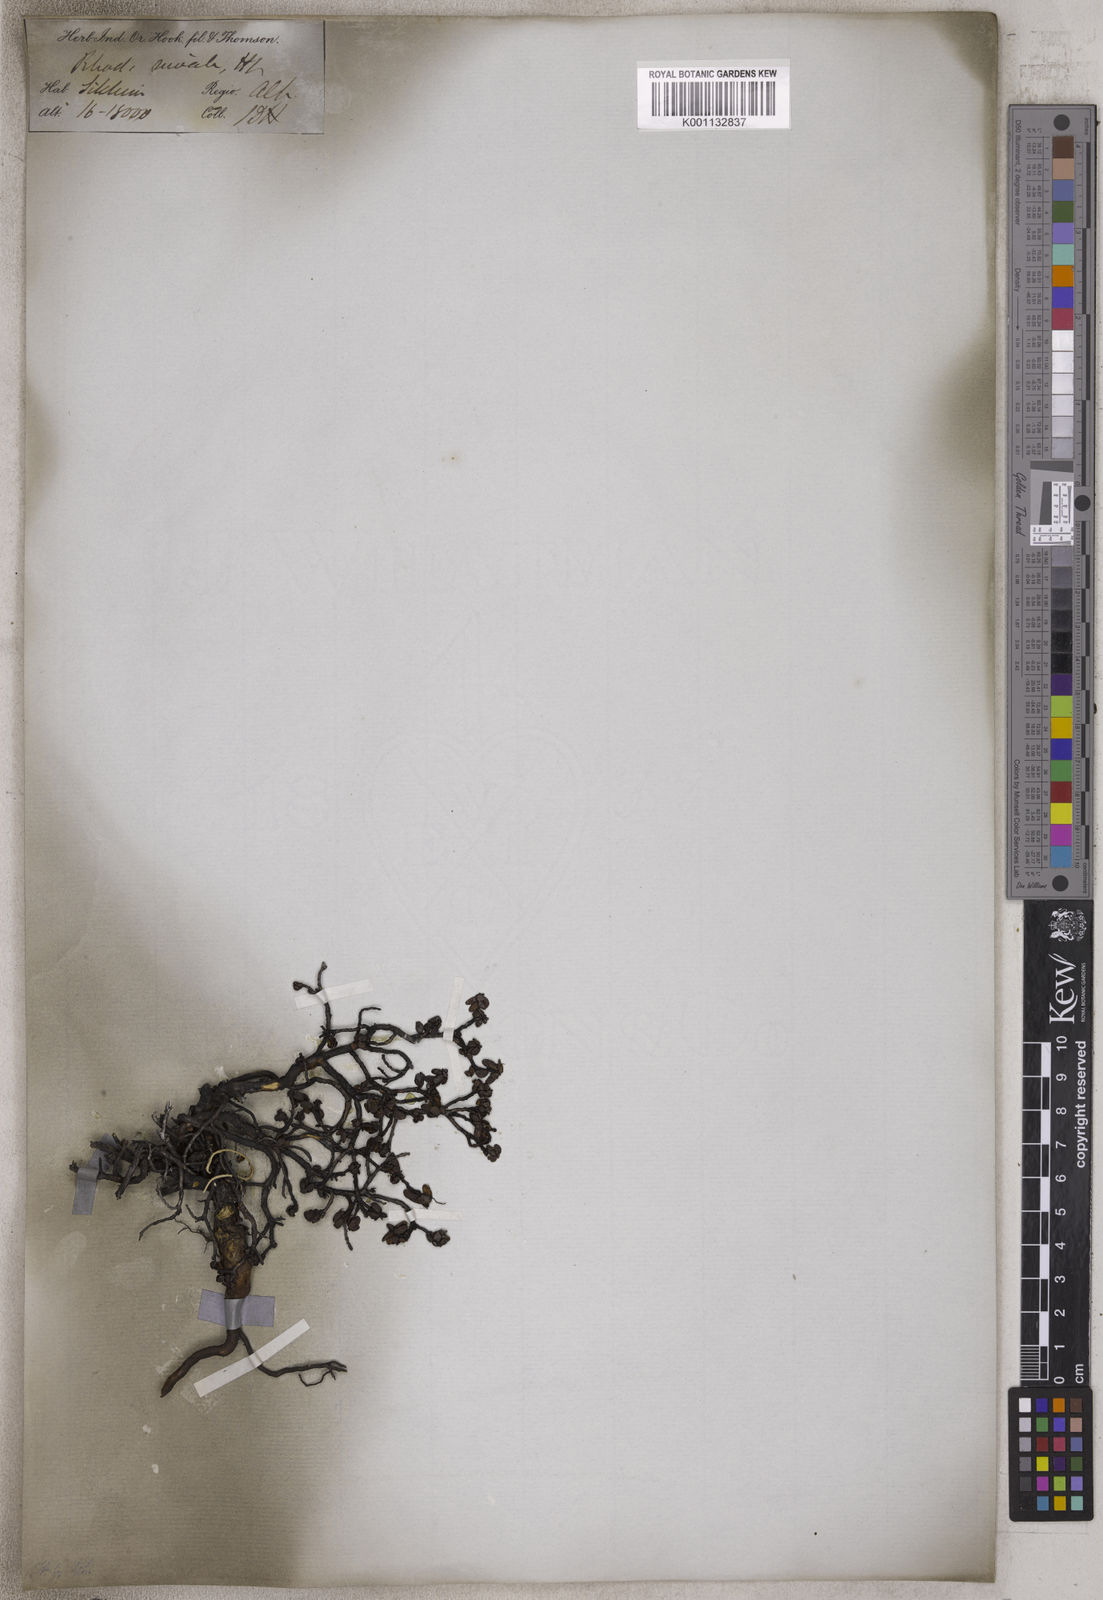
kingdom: Plantae
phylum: Tracheophyta
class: Magnoliopsida
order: Ericales
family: Ericaceae
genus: Rhododendron
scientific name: Rhododendron nivale
